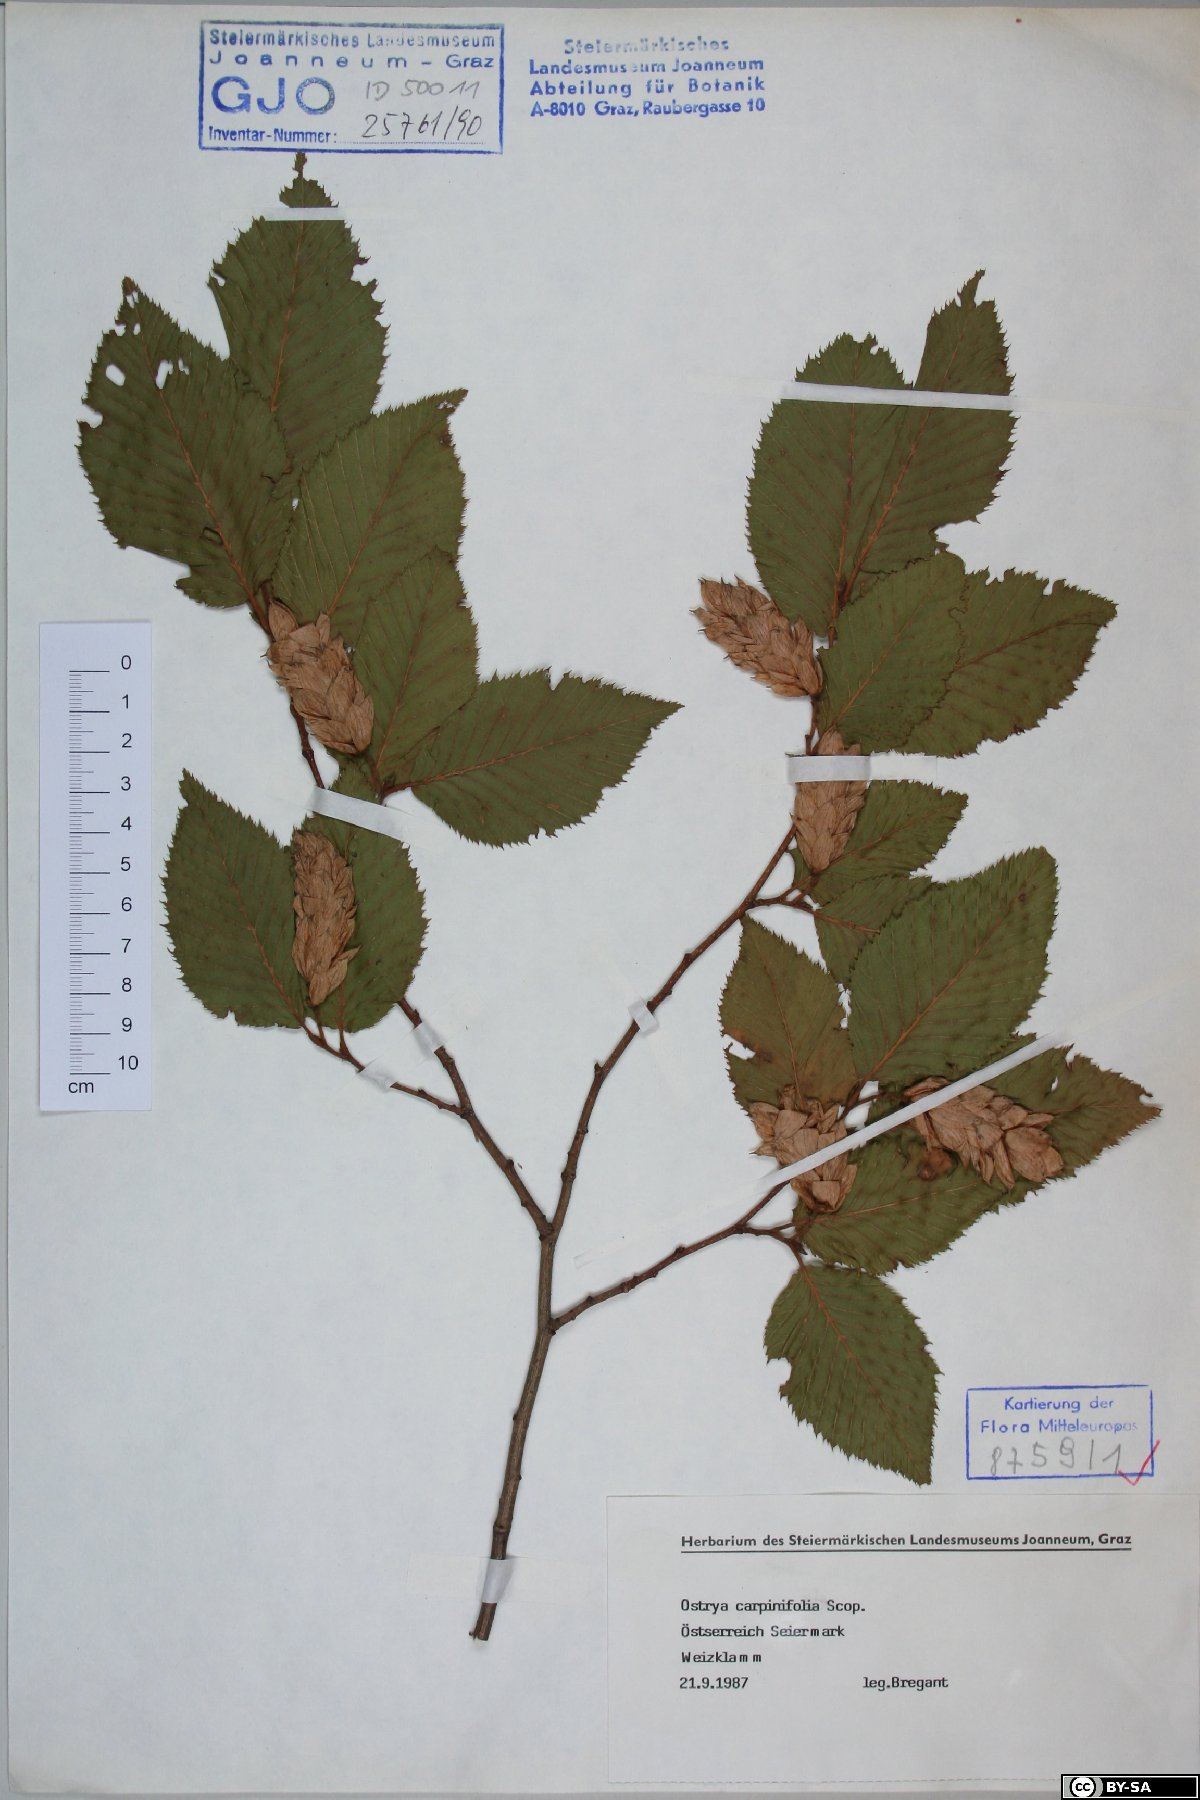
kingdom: Plantae
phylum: Tracheophyta
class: Magnoliopsida
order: Fagales
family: Betulaceae
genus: Ostrya
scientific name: Ostrya carpinifolia
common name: European hop-hornbeam
